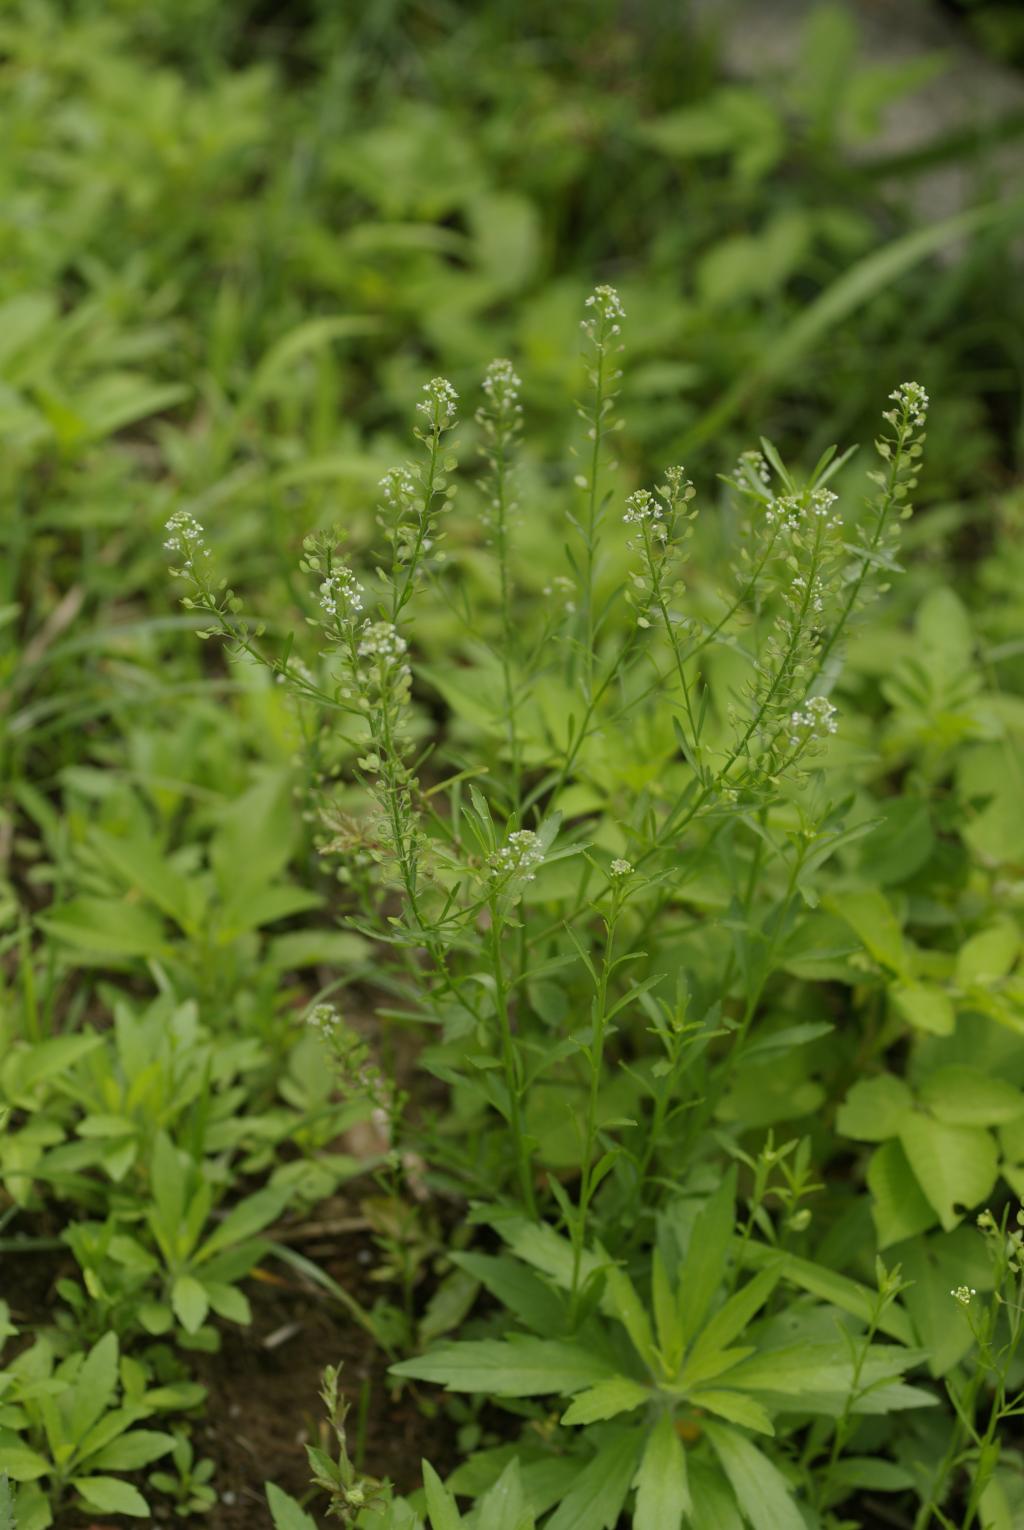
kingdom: Plantae
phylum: Tracheophyta
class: Magnoliopsida
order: Brassicales
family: Brassicaceae
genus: Lepidium
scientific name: Lepidium virginicum
